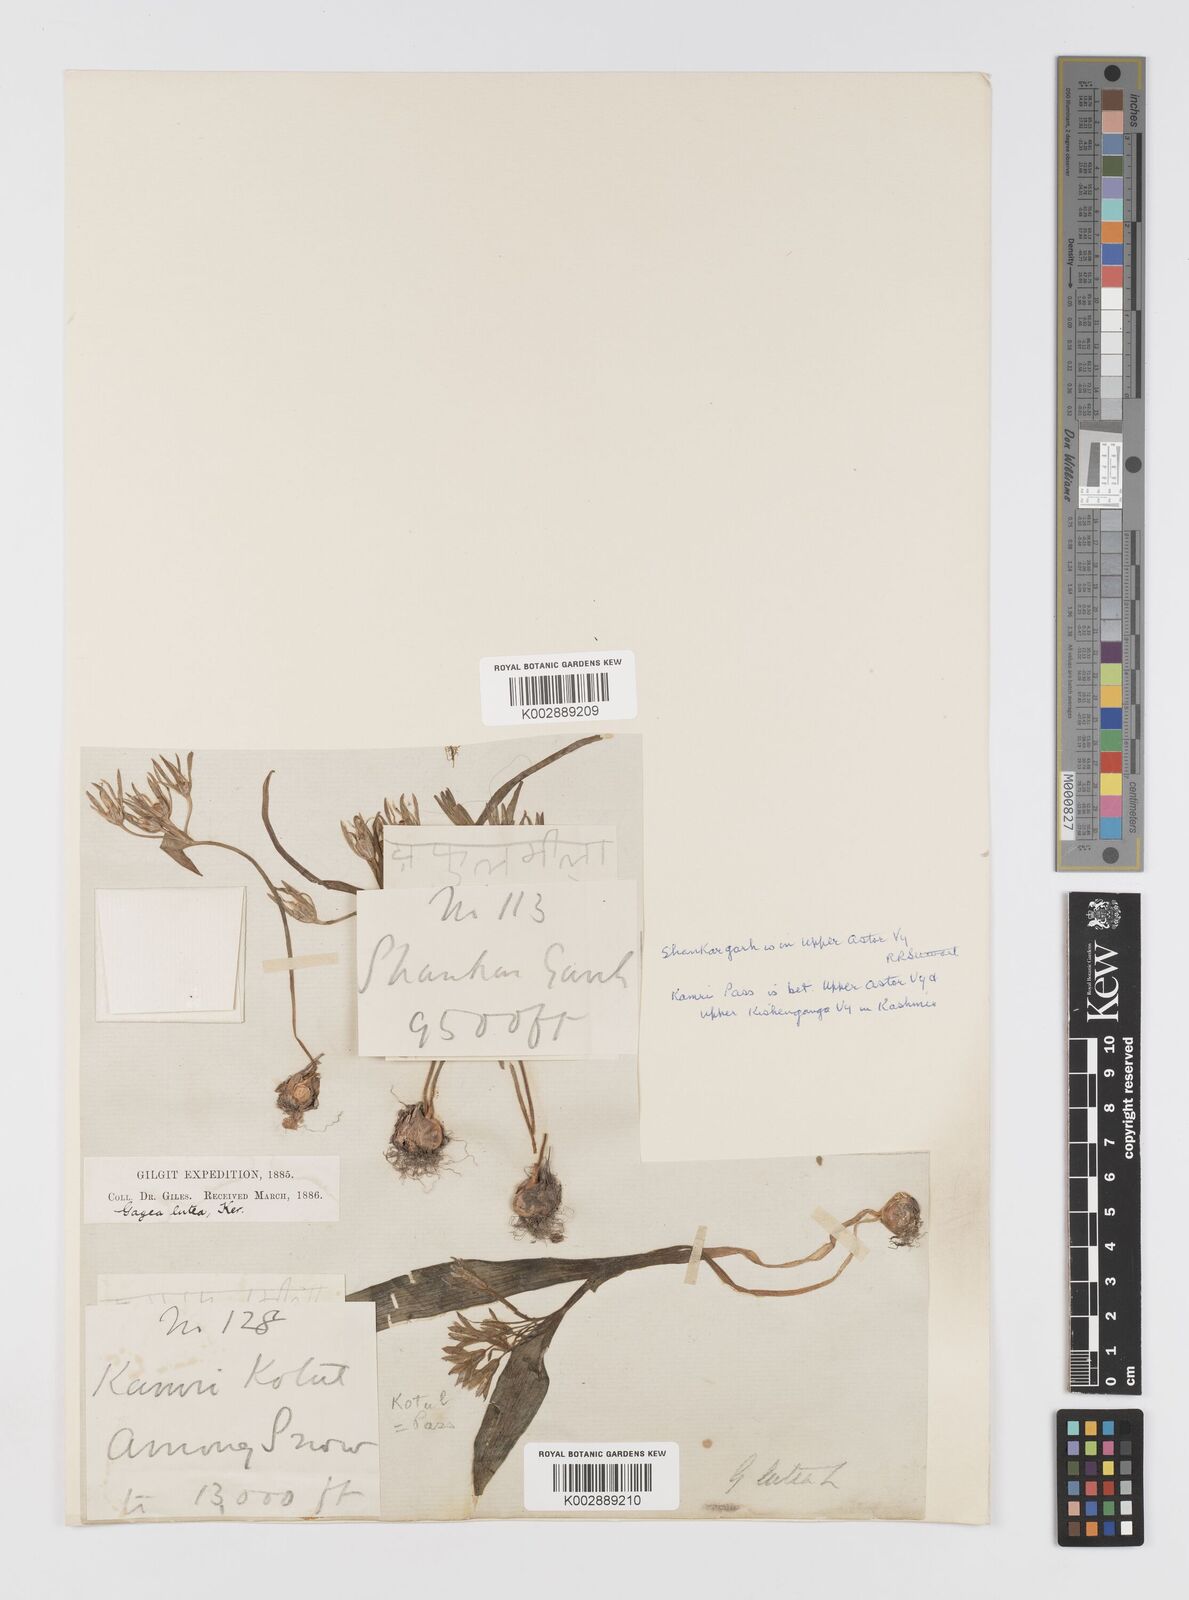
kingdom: Plantae
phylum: Tracheophyta
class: Liliopsida
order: Liliales
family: Liliaceae
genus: Gagea
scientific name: Gagea lutea
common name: Yellow star-of-bethlehem
